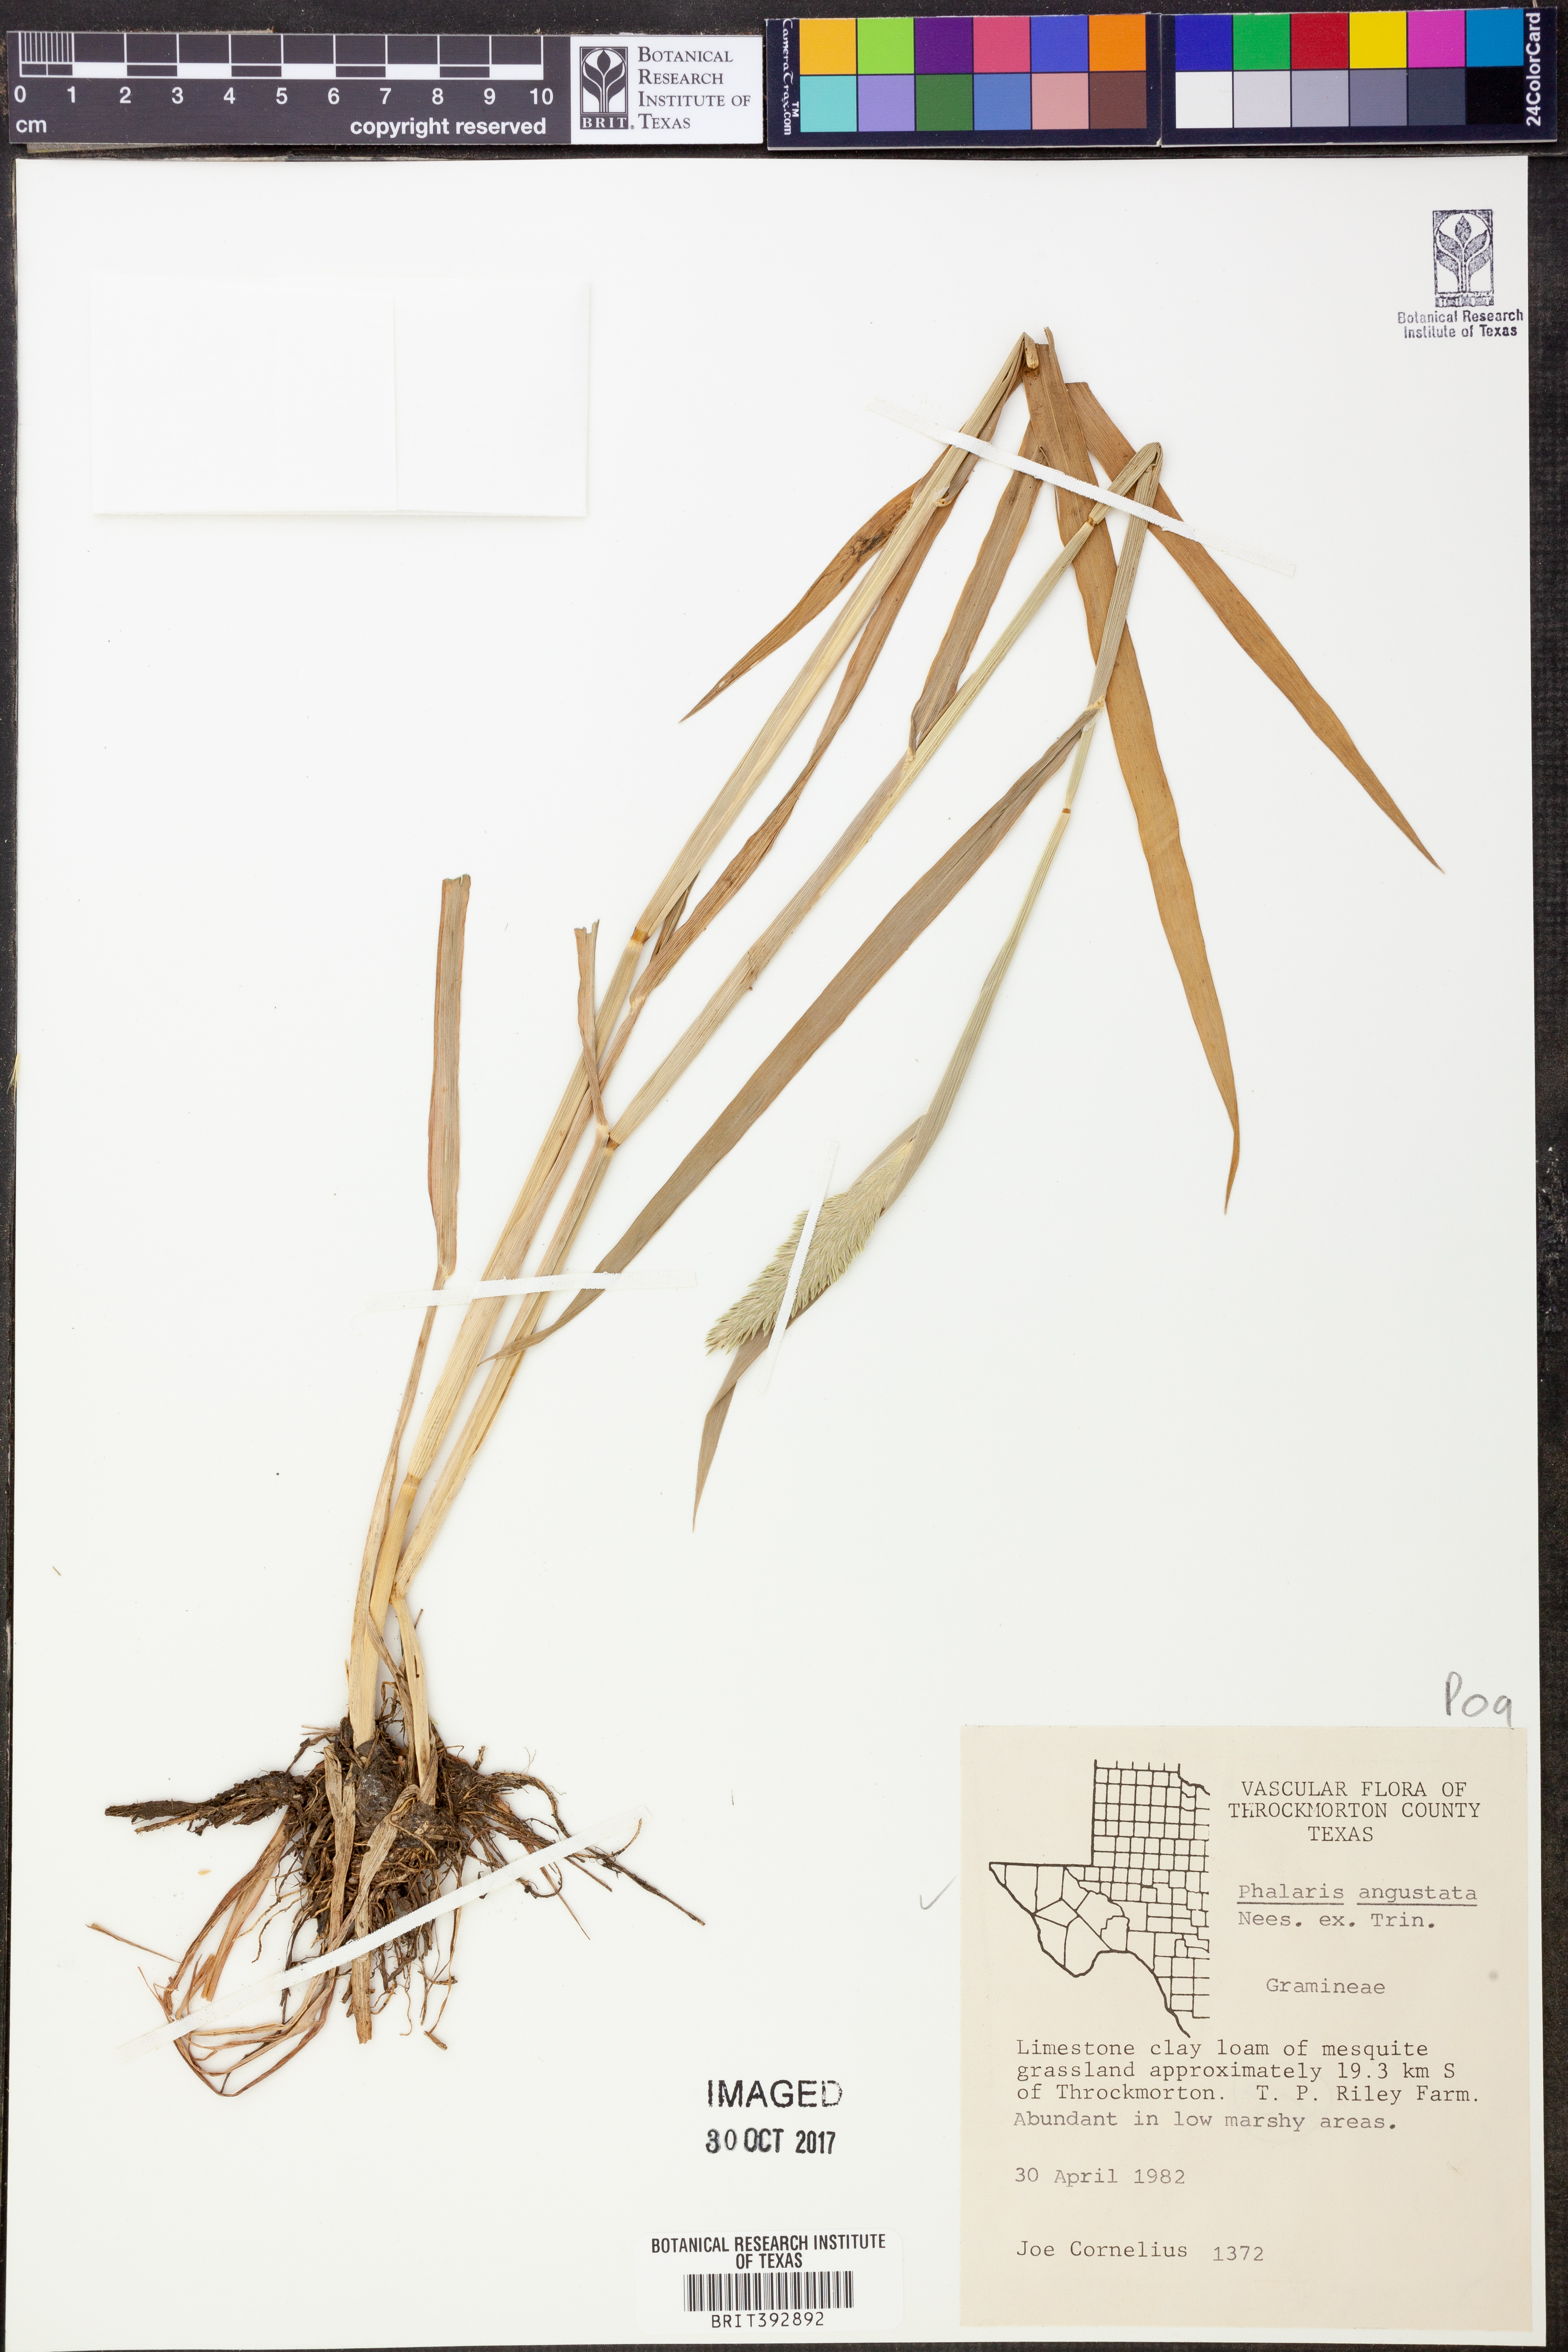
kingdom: Plantae
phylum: Tracheophyta
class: Liliopsida
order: Poales
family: Poaceae
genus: Phalaris
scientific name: Phalaris angusta
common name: Narrow canary grass
